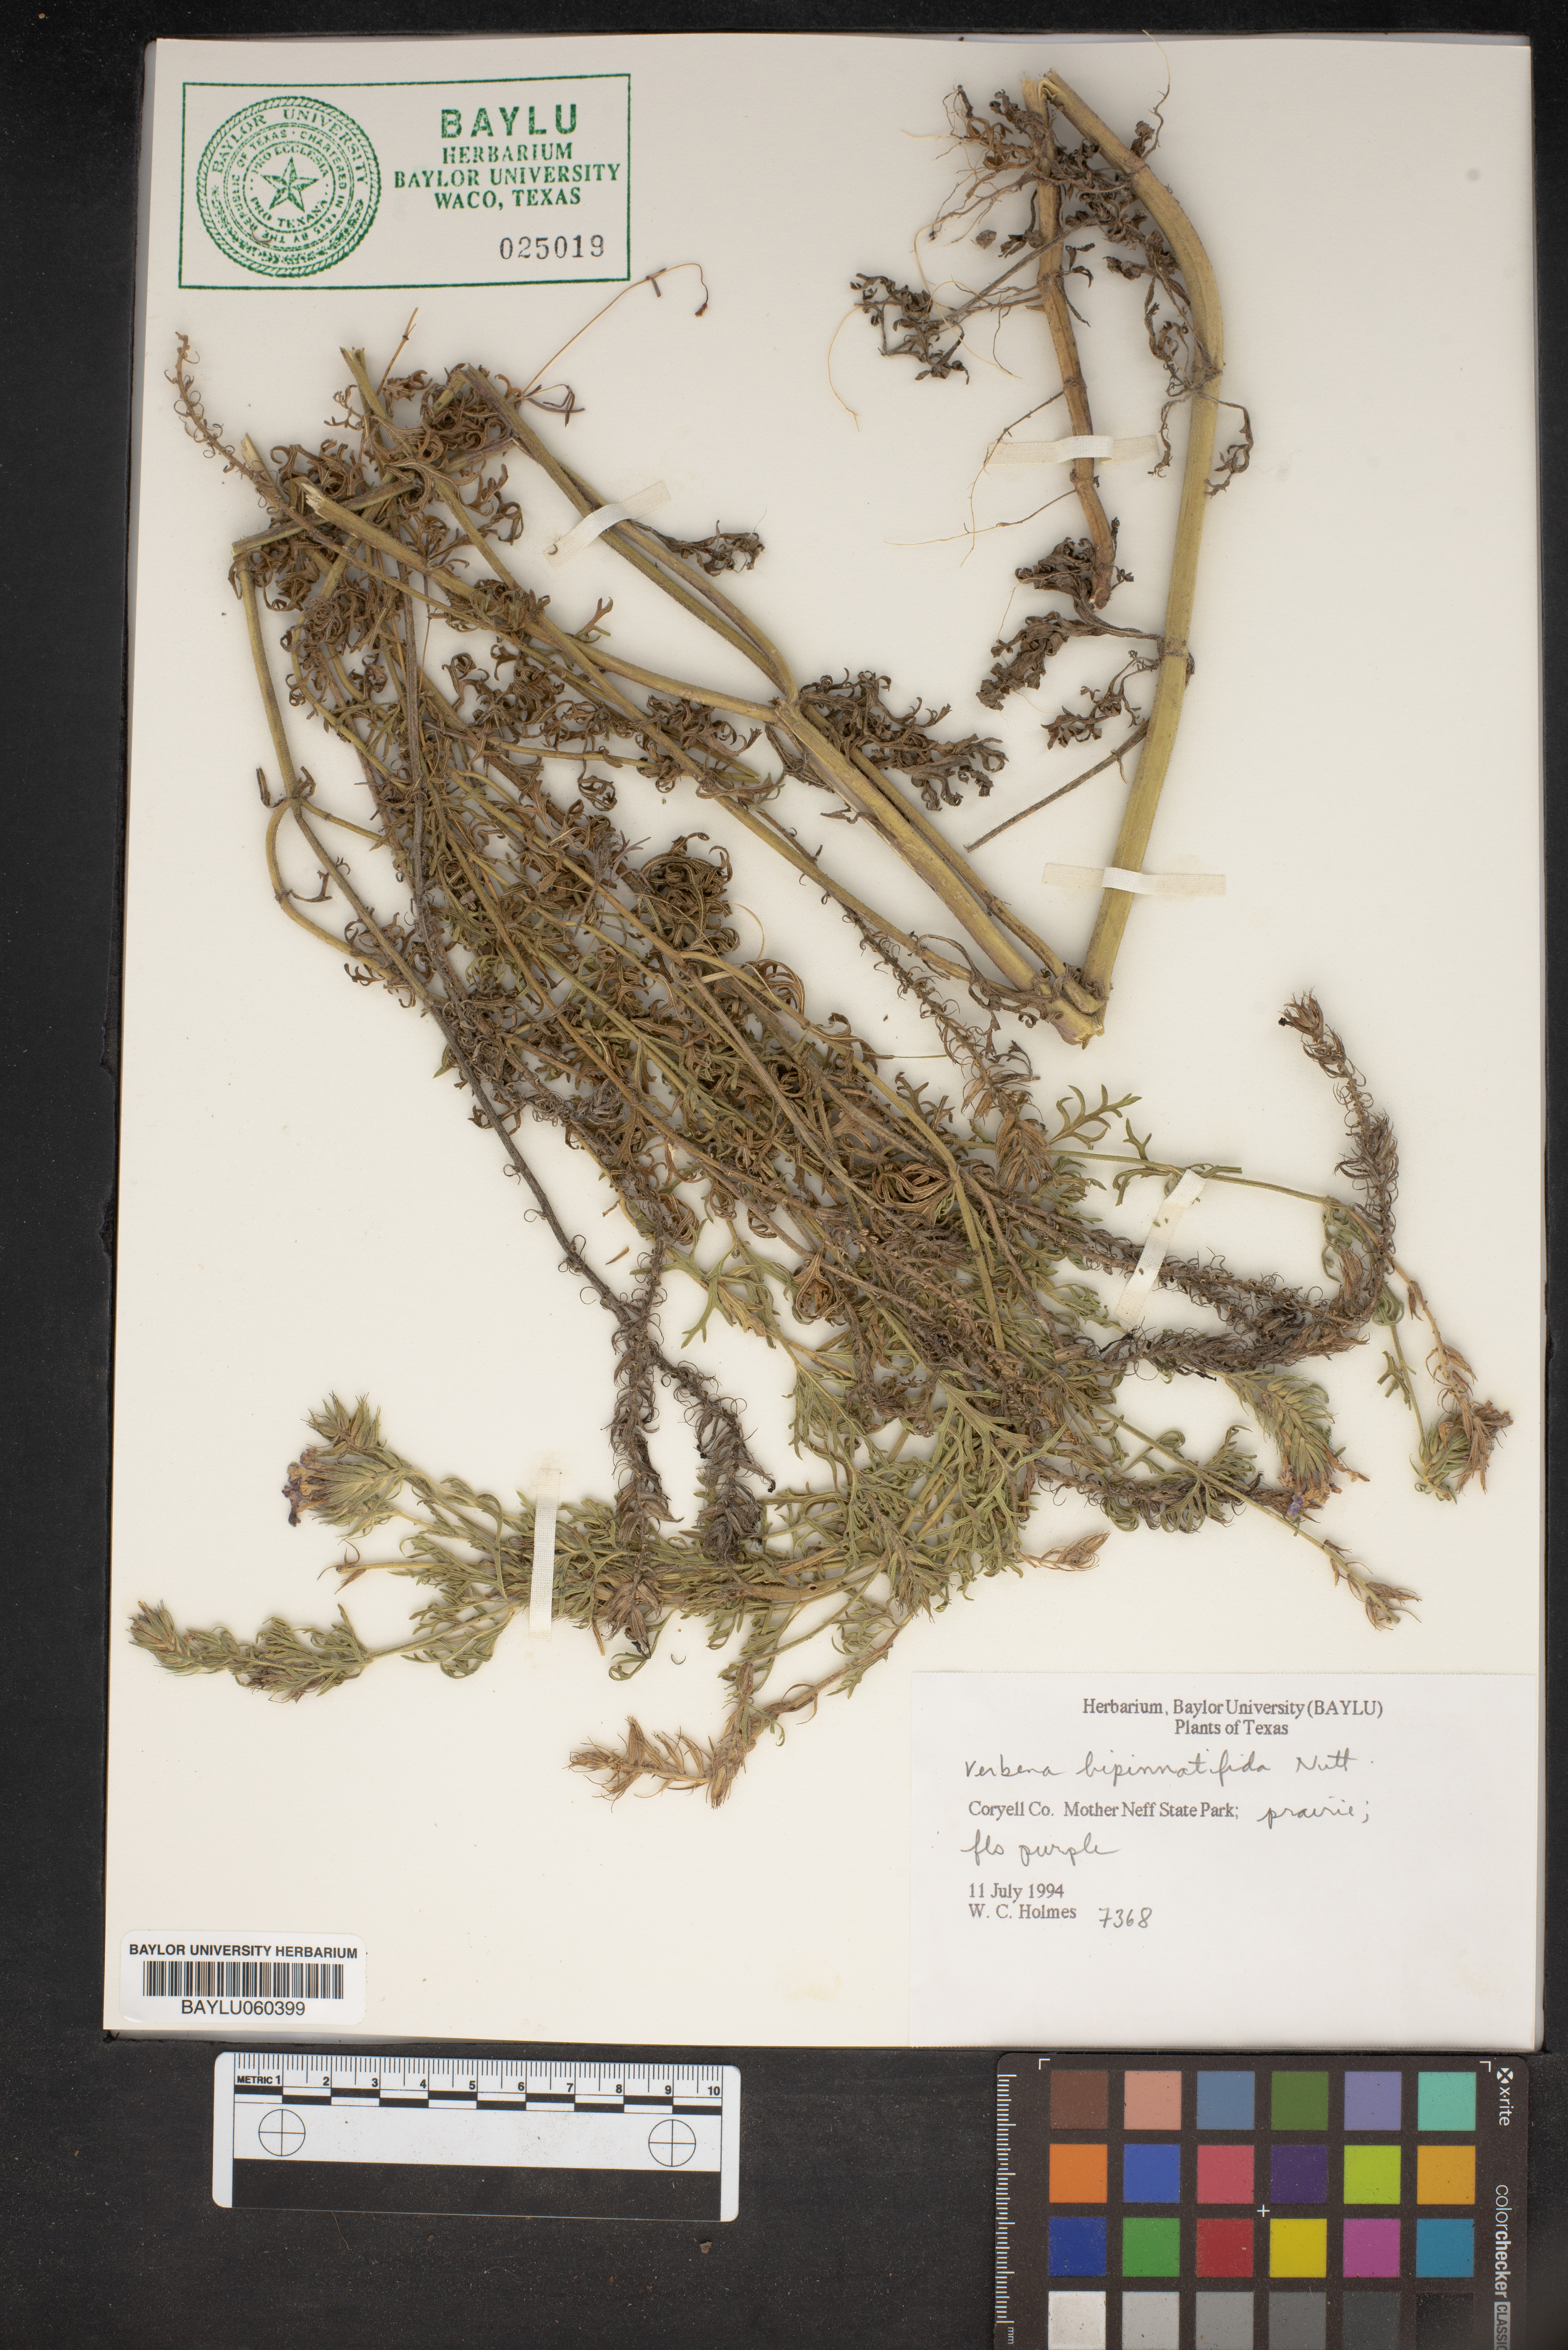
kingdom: Plantae
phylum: Tracheophyta
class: Magnoliopsida
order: Lamiales
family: Verbenaceae
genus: Verbena
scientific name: Verbena bipinnatifida
